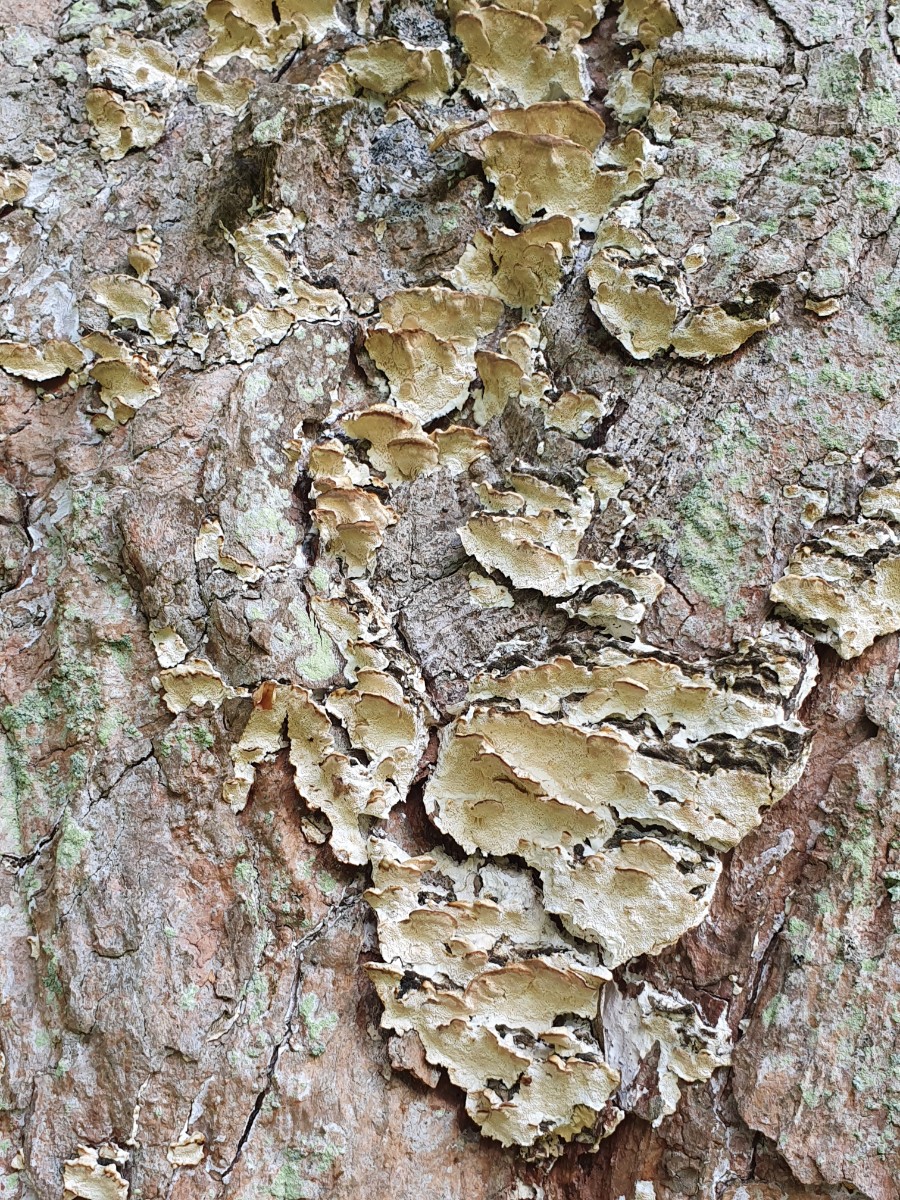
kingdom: Fungi
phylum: Basidiomycota
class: Agaricomycetes
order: Hymenochaetales
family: Oxyporaceae
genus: Oxyporus
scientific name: Oxyporus populinus
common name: sammenvokset trylleporesvamp
